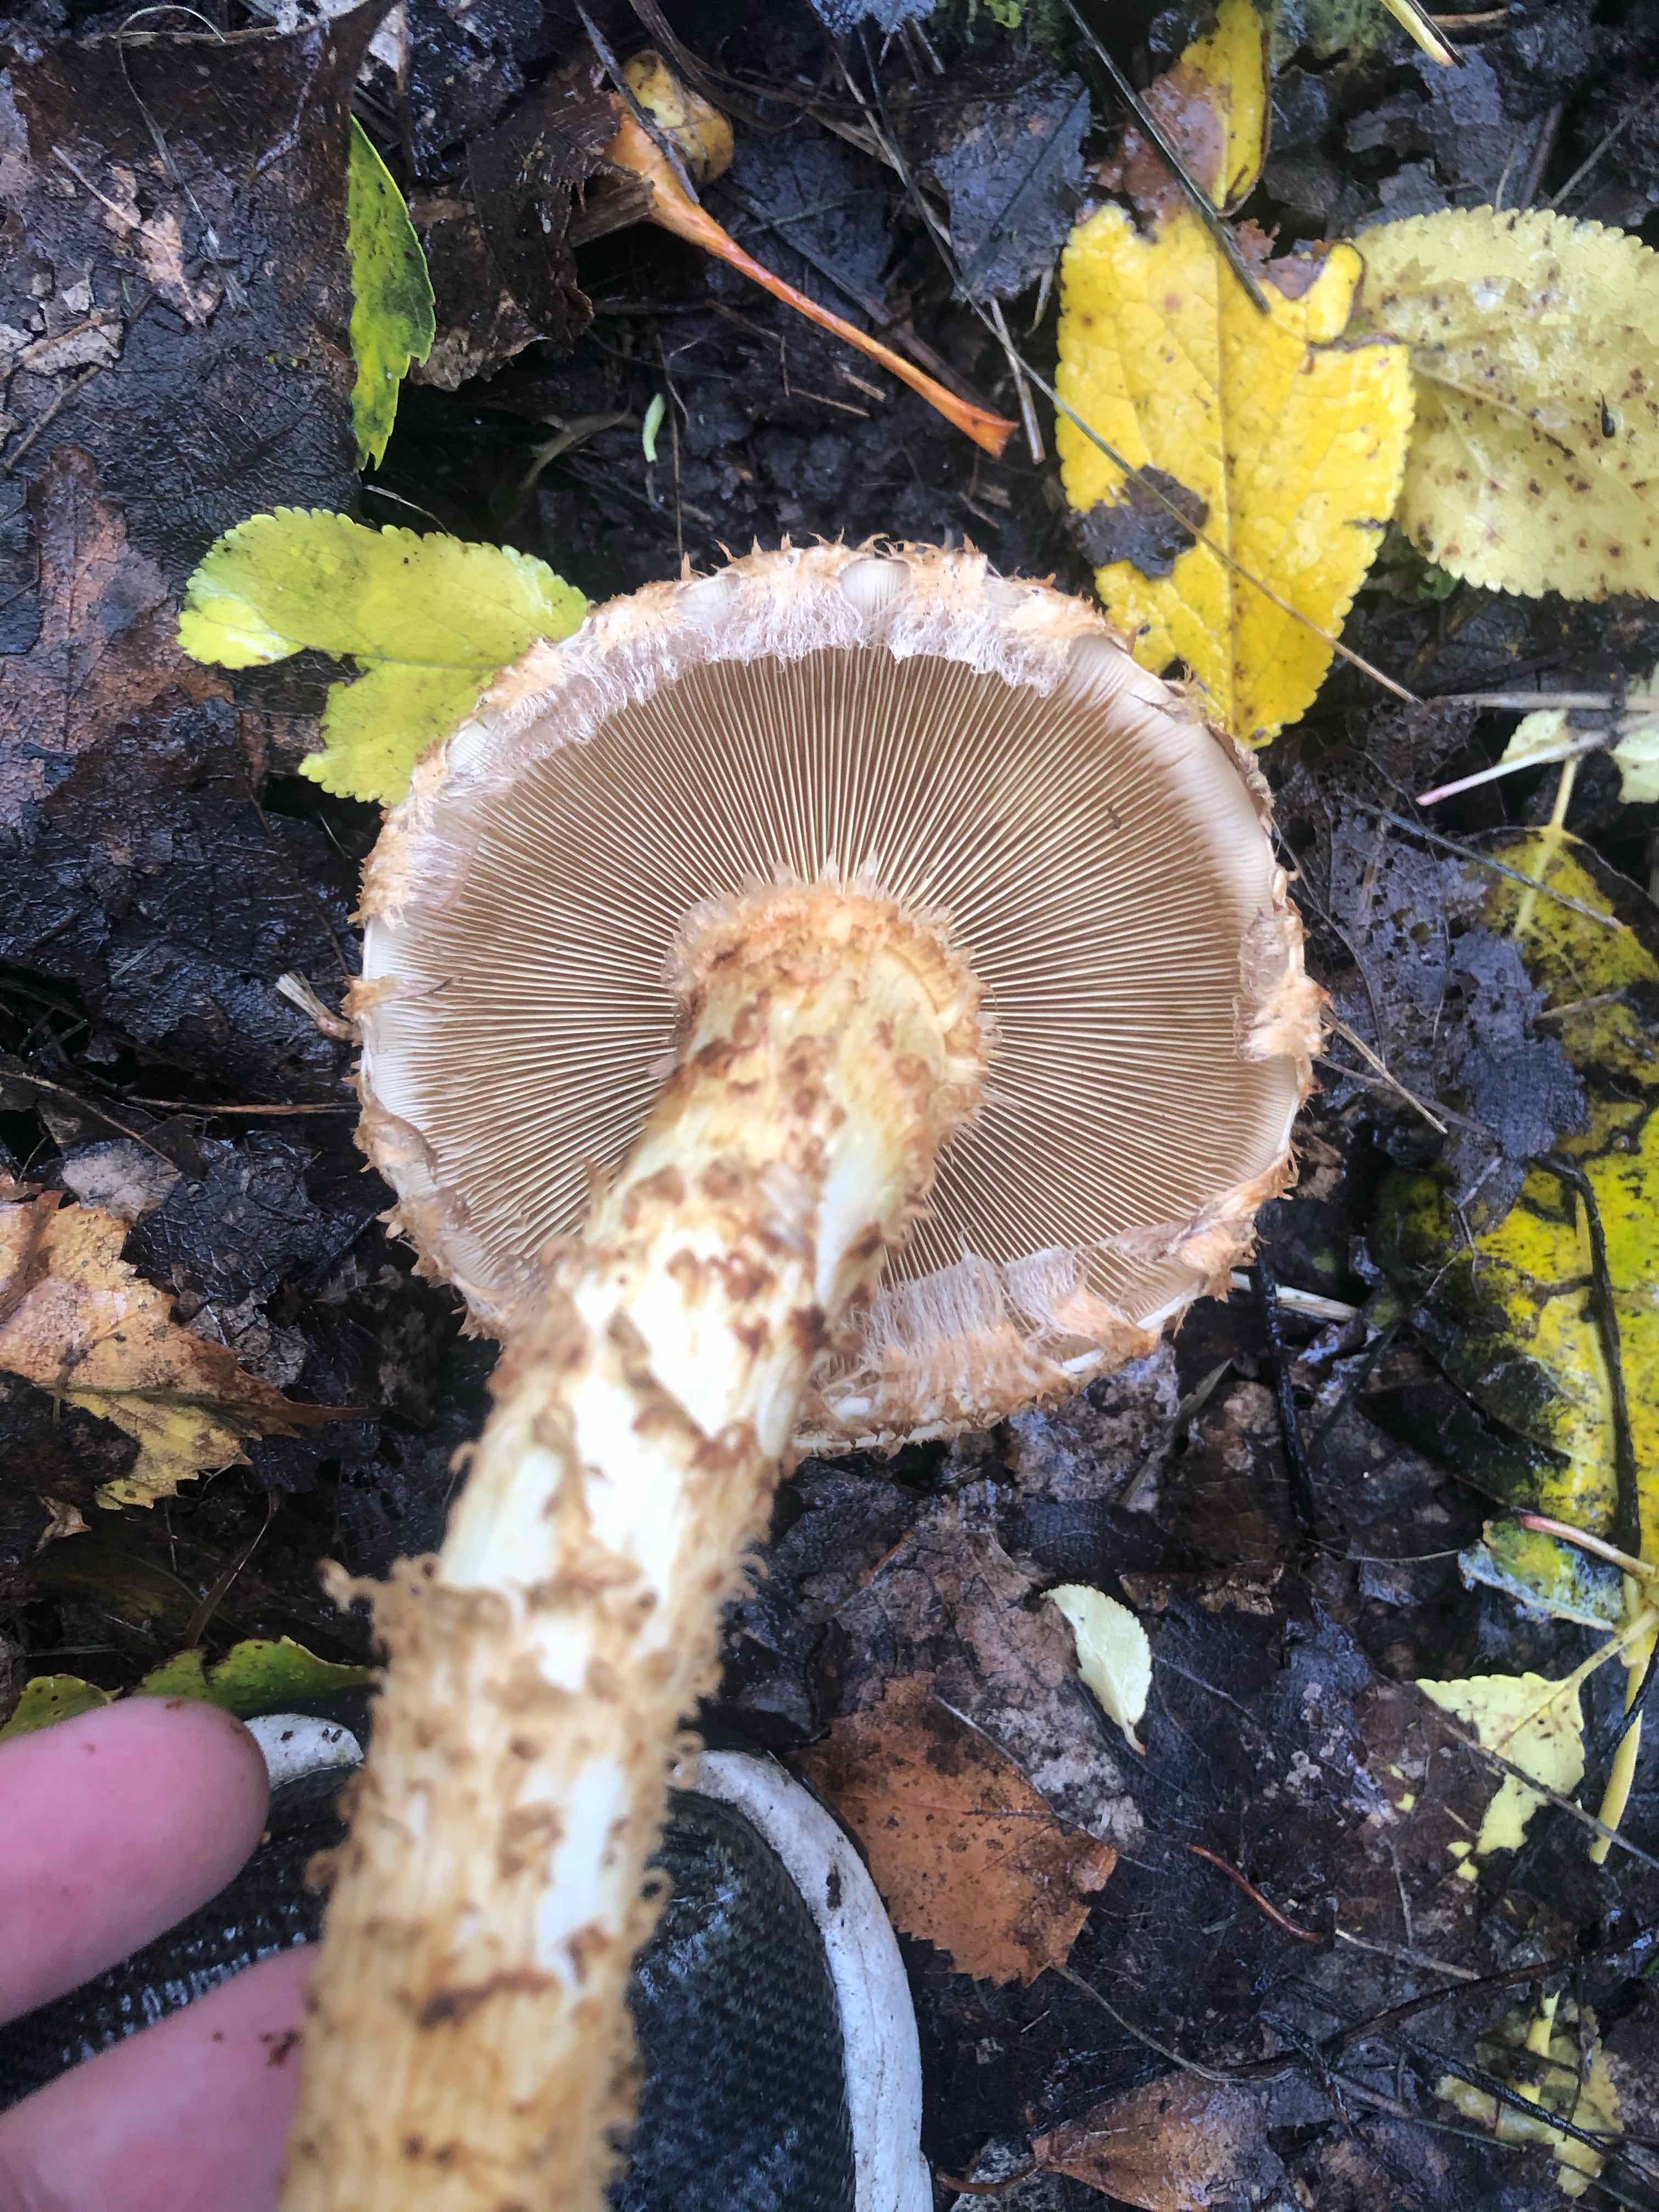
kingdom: Fungi
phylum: Basidiomycota
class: Agaricomycetes
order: Agaricales
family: Strophariaceae
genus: Pholiota
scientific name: Pholiota squarrosa
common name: krumskællet skælhat
